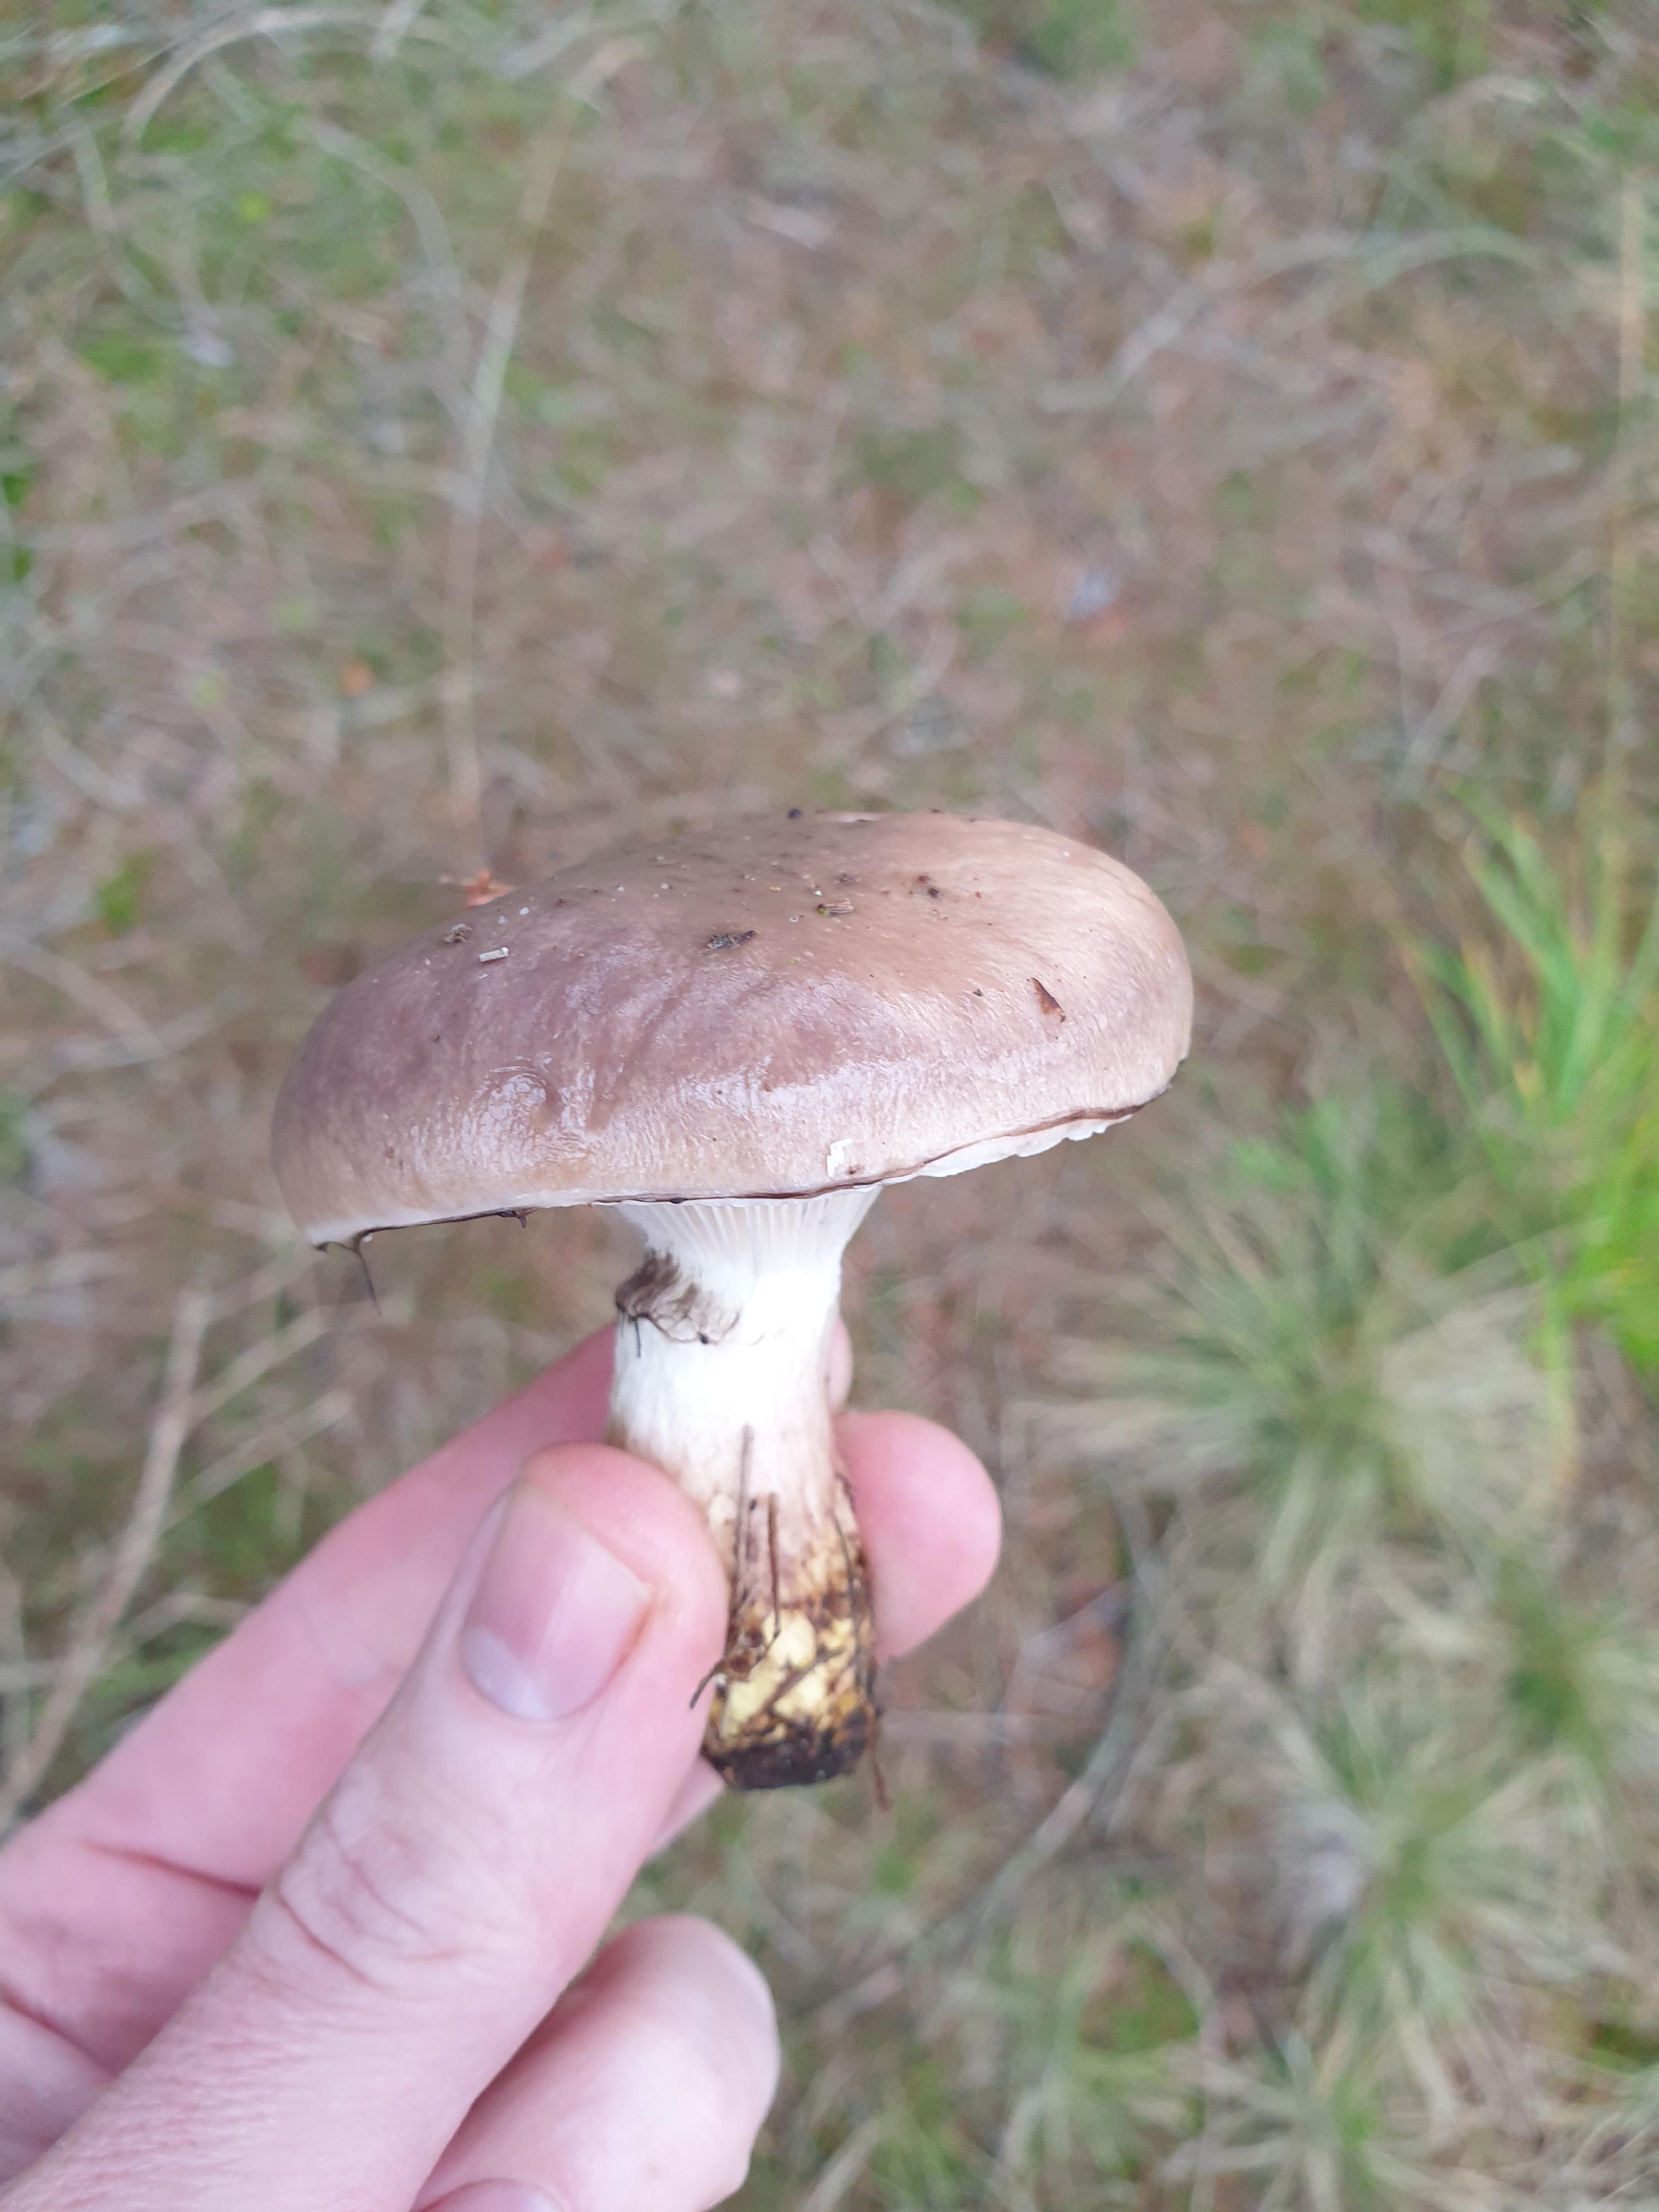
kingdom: Fungi
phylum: Basidiomycota
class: Agaricomycetes
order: Boletales
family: Gomphidiaceae
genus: Gomphidius
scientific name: Gomphidius glutinosus
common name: grå slimslør
